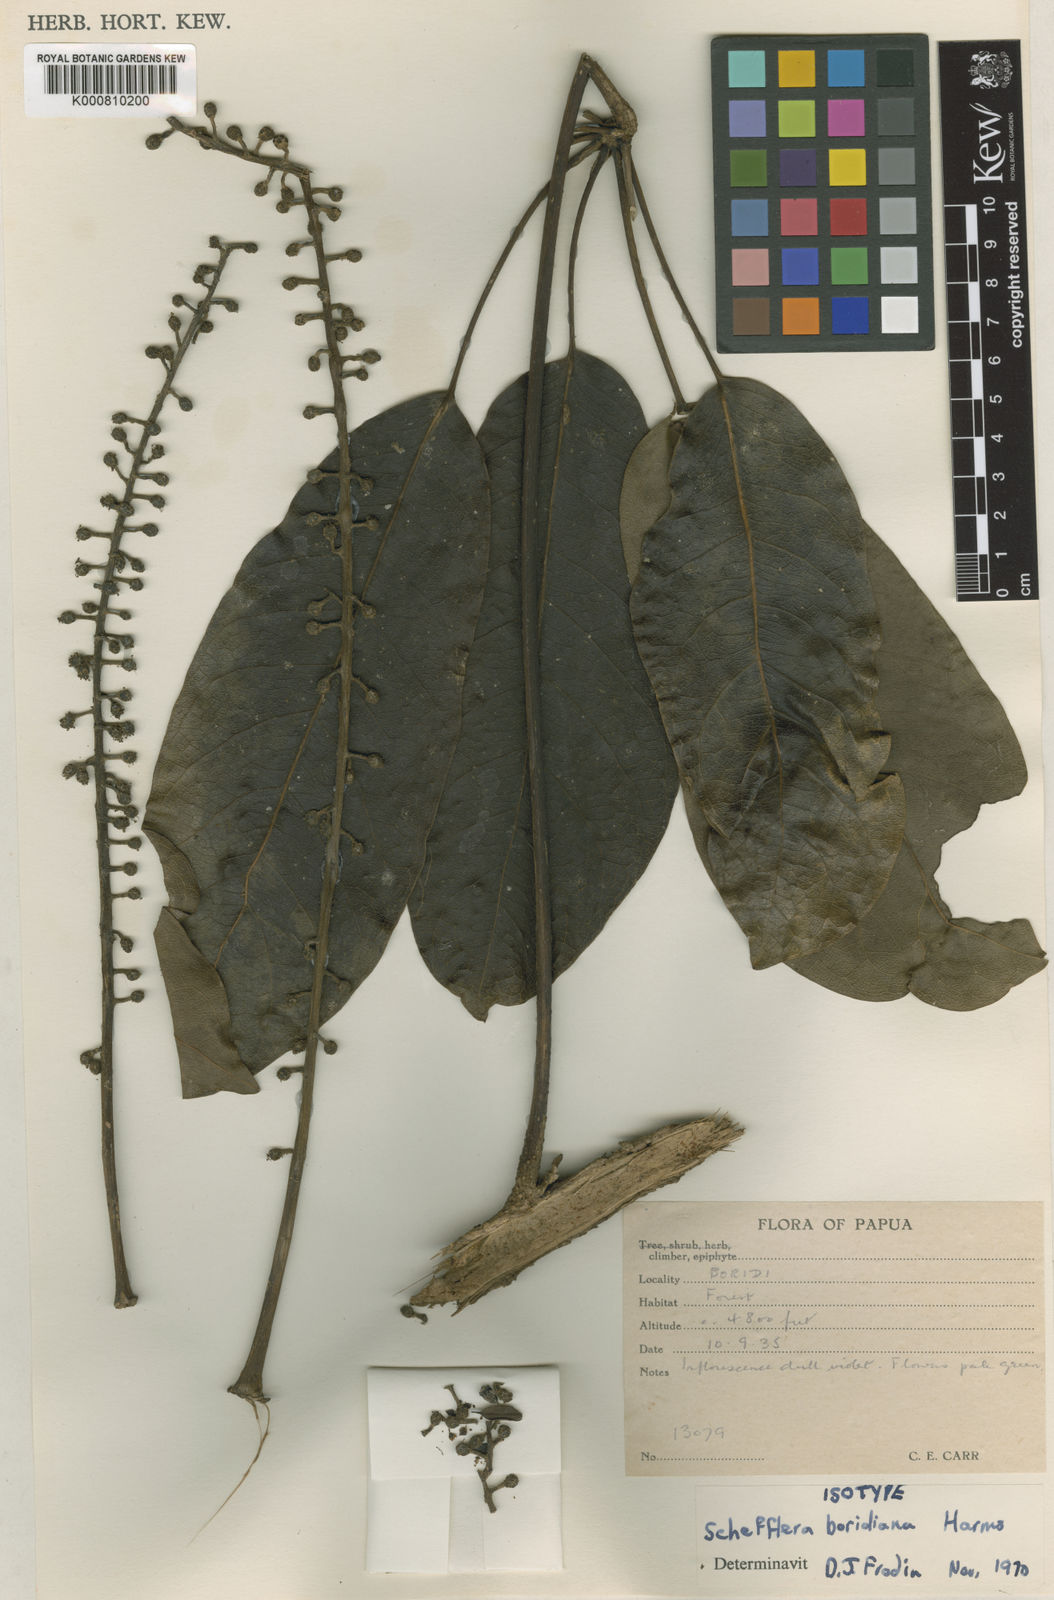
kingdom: Plantae
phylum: Tracheophyta
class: Magnoliopsida
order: Apiales
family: Araliaceae
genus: Heptapleurum
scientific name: Heptapleurum boridianum
